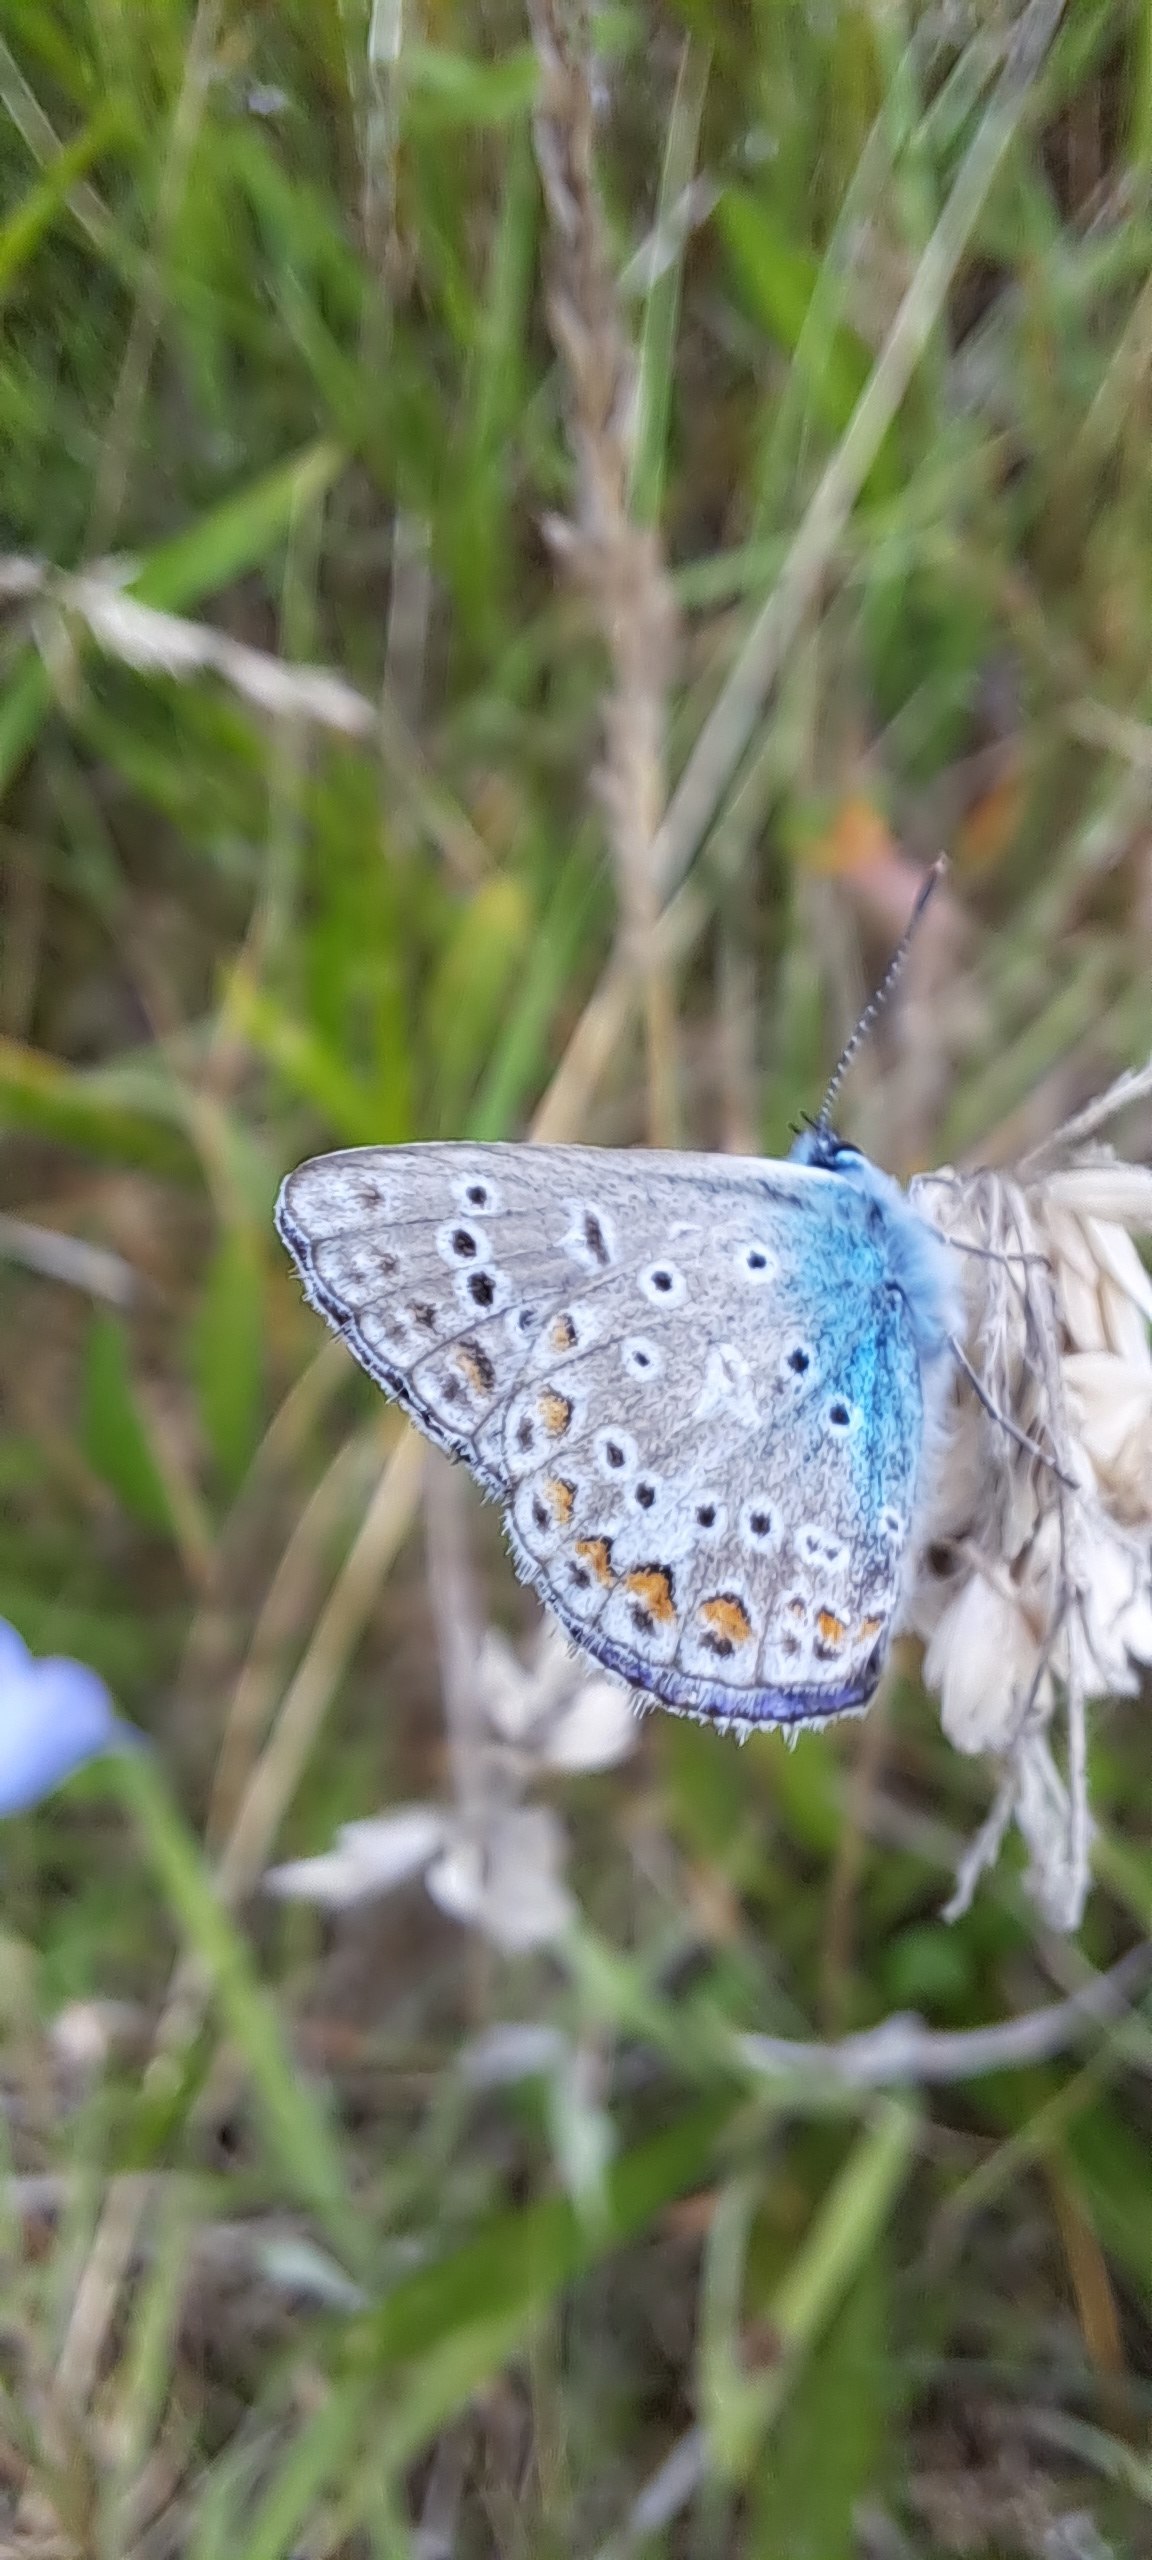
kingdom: Animalia
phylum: Arthropoda
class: Insecta
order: Lepidoptera
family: Lycaenidae
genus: Polyommatus
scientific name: Polyommatus icarus
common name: Almindelig blåfugl
